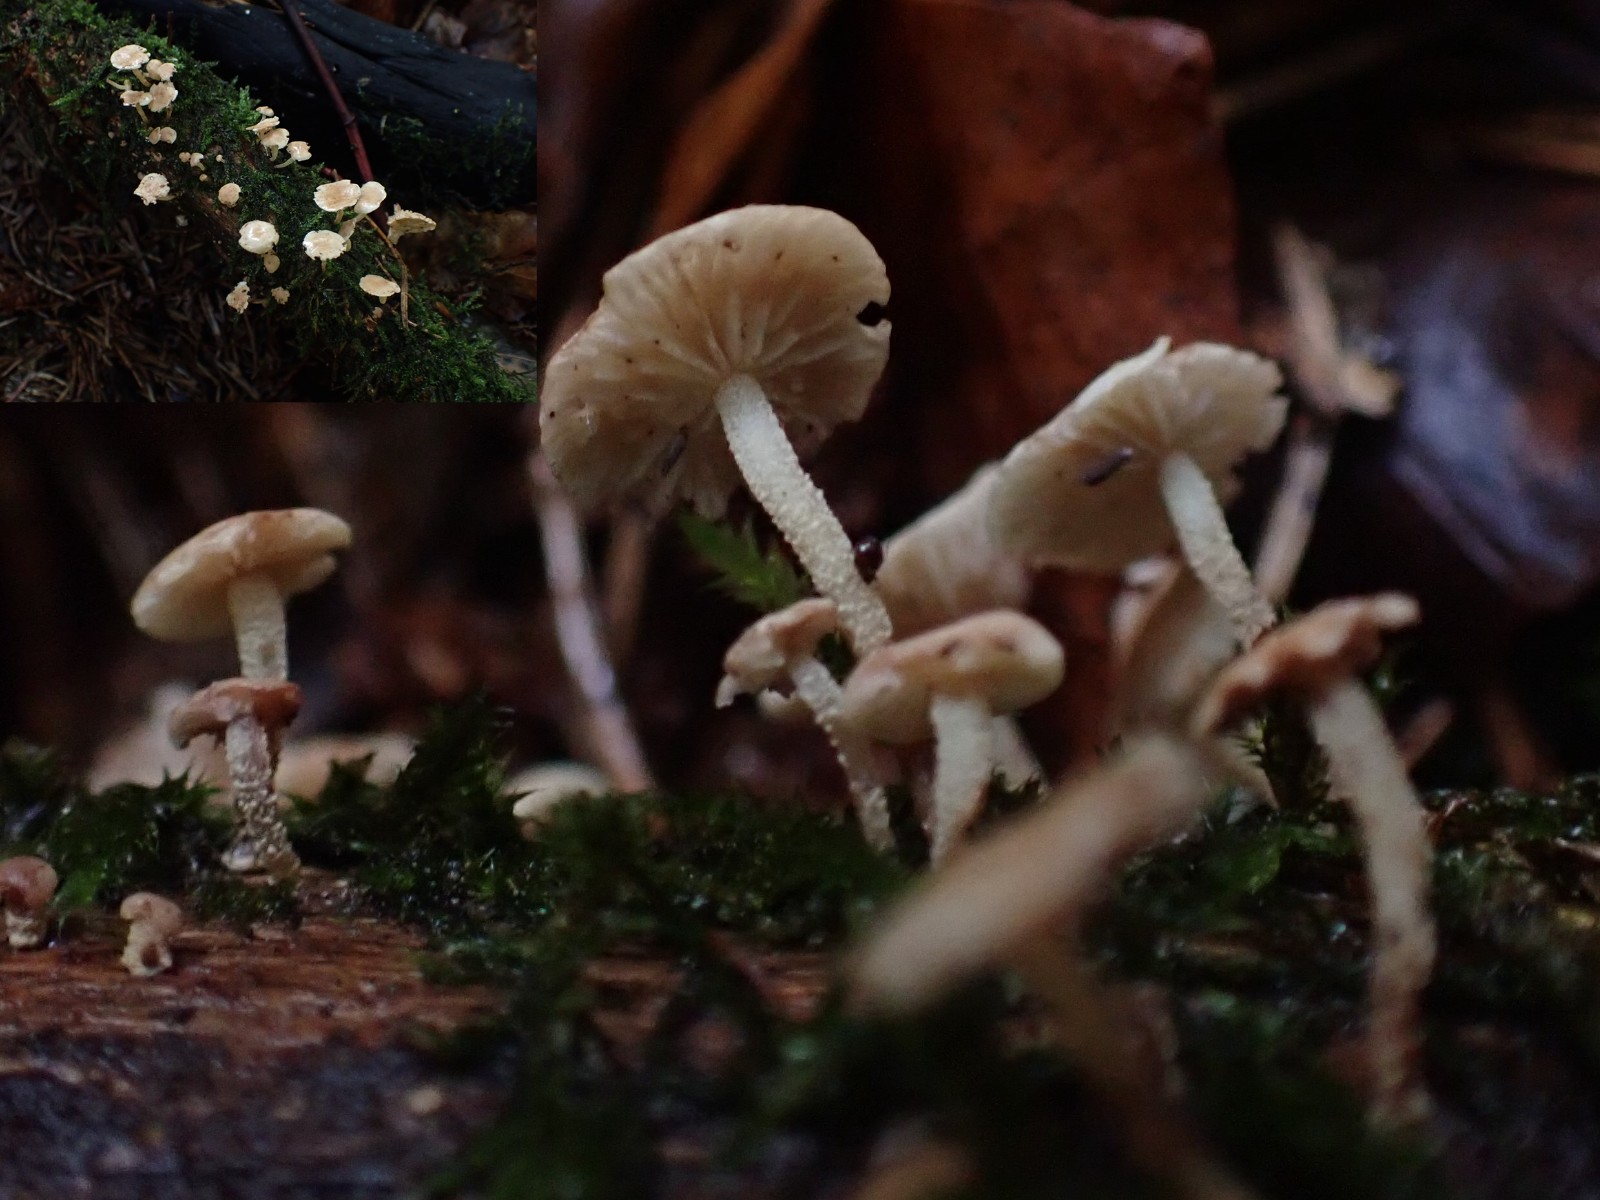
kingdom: Fungi
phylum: Basidiomycota
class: Agaricomycetes
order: Agaricales
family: Omphalotaceae
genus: Collybiopsis
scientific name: Collybiopsis ramealis
